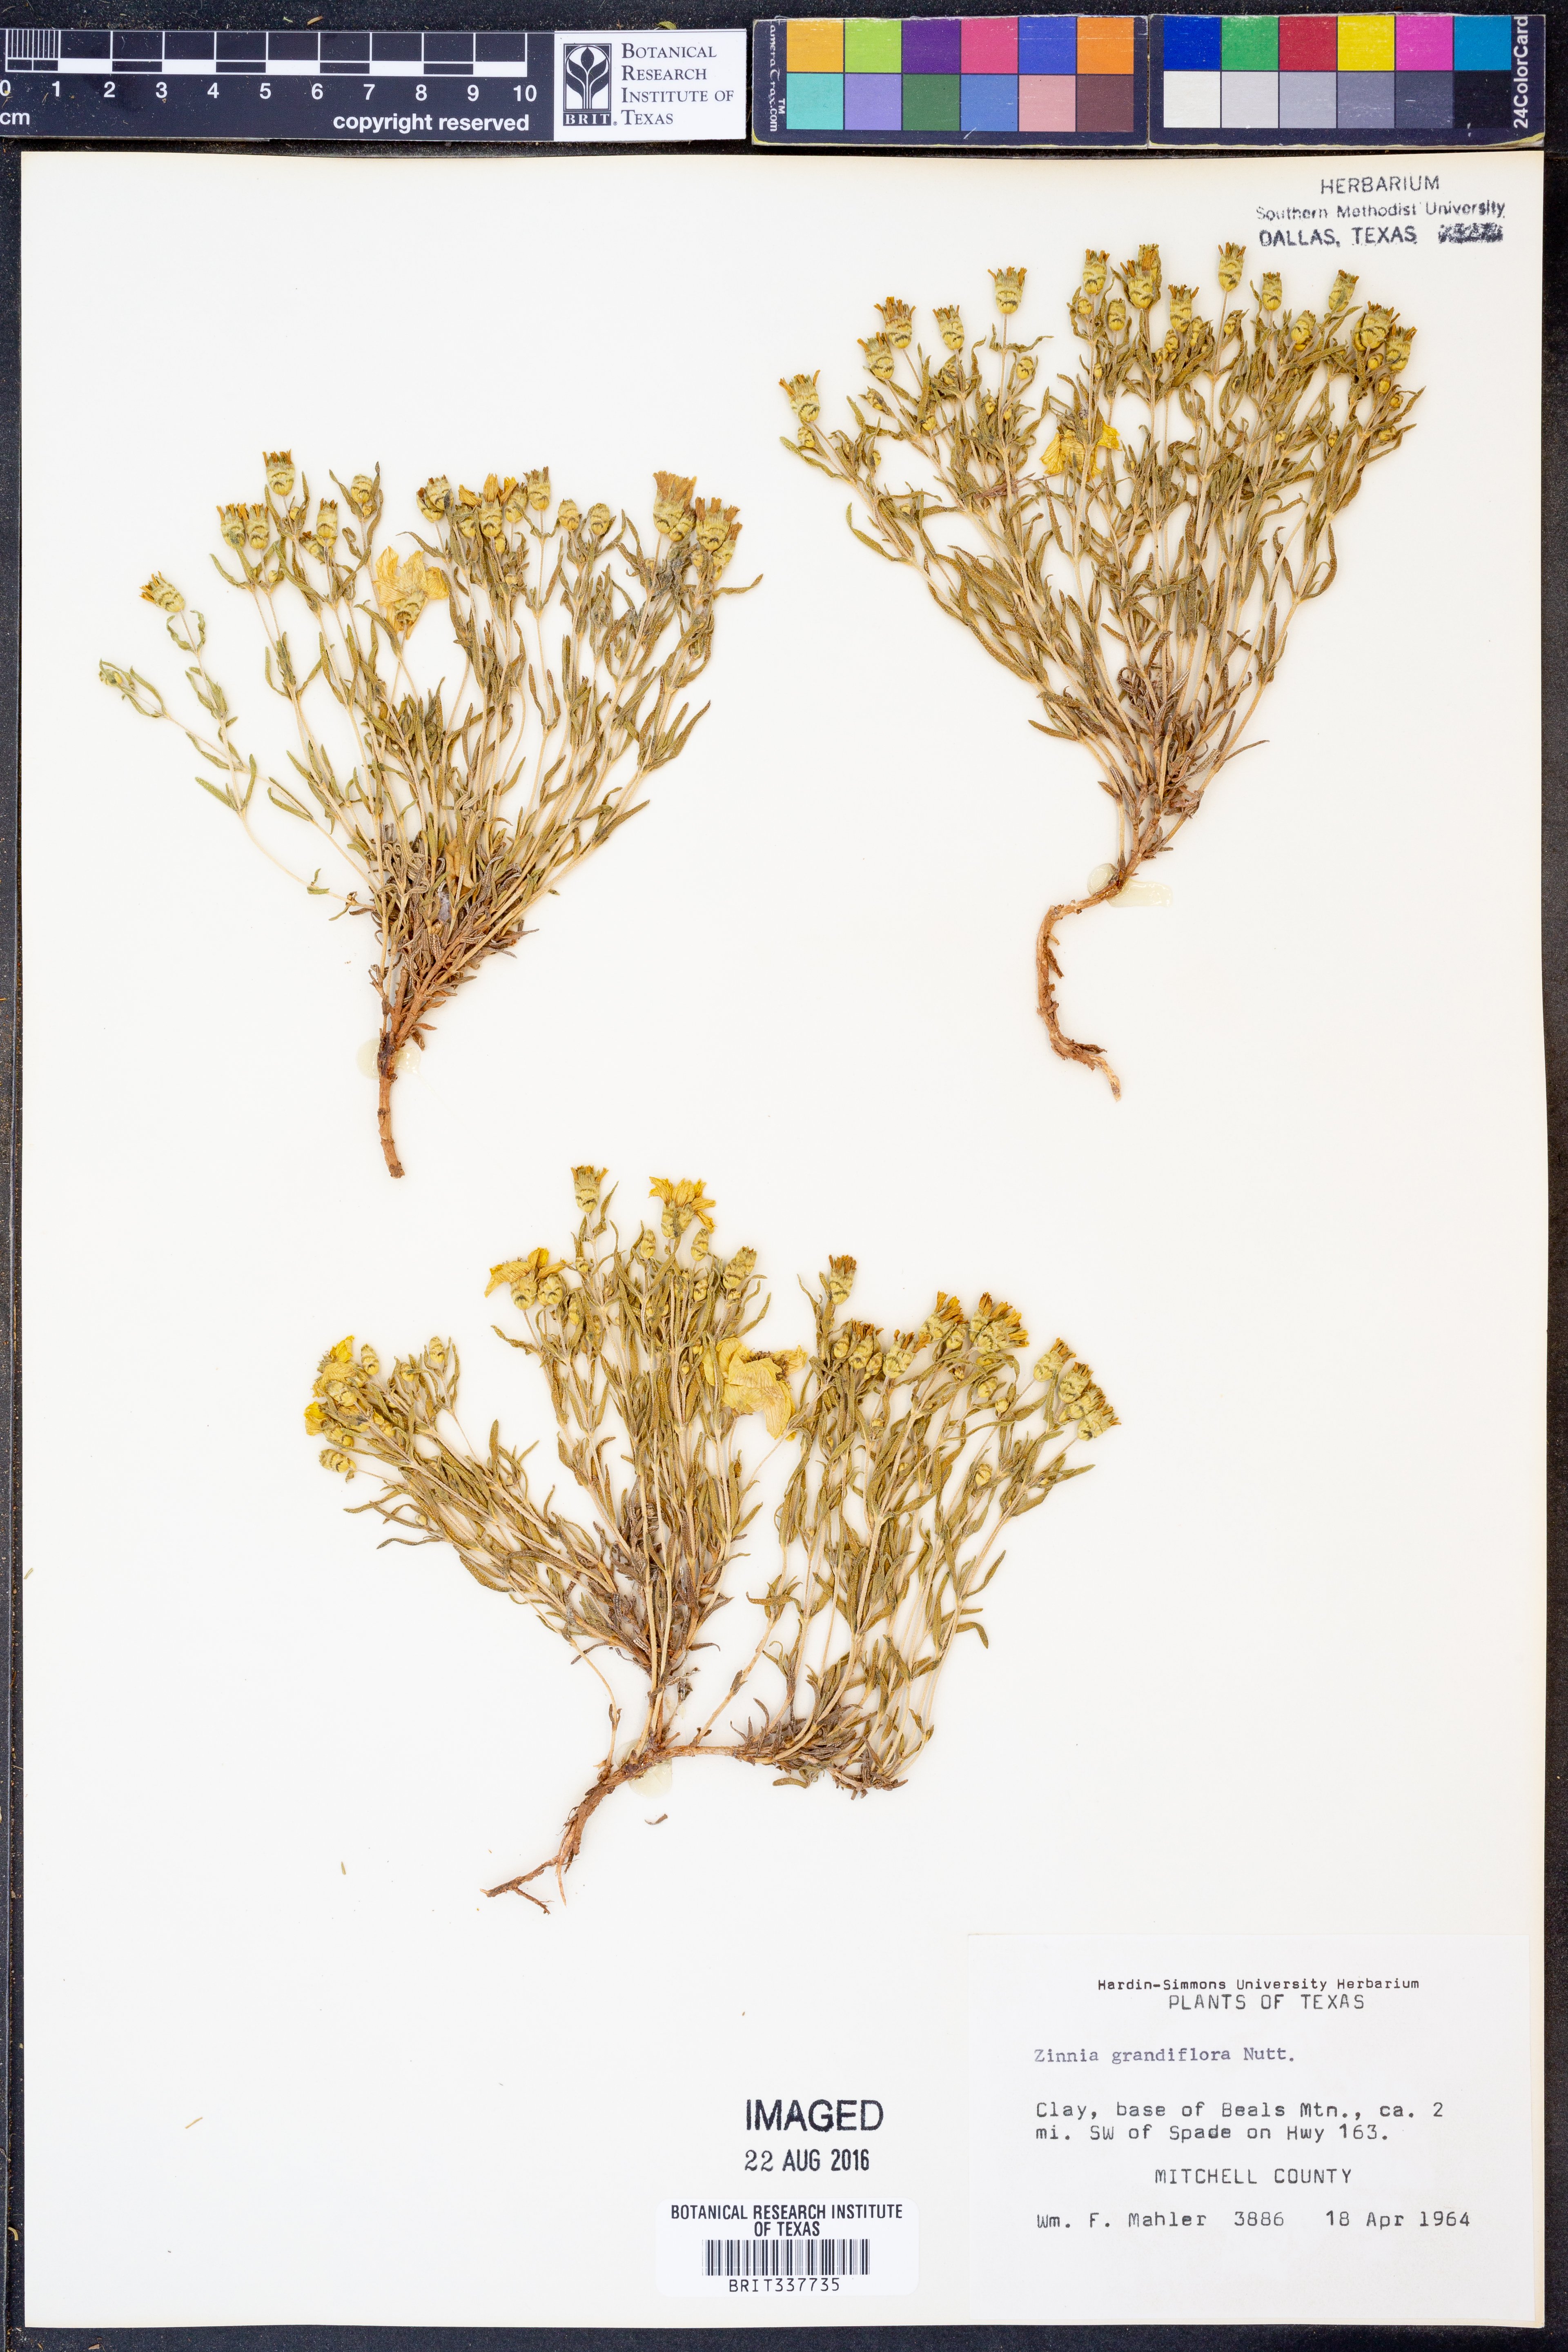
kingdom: Plantae
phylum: Tracheophyta
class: Magnoliopsida
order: Asterales
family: Asteraceae
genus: Zinnia
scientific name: Zinnia grandiflora
